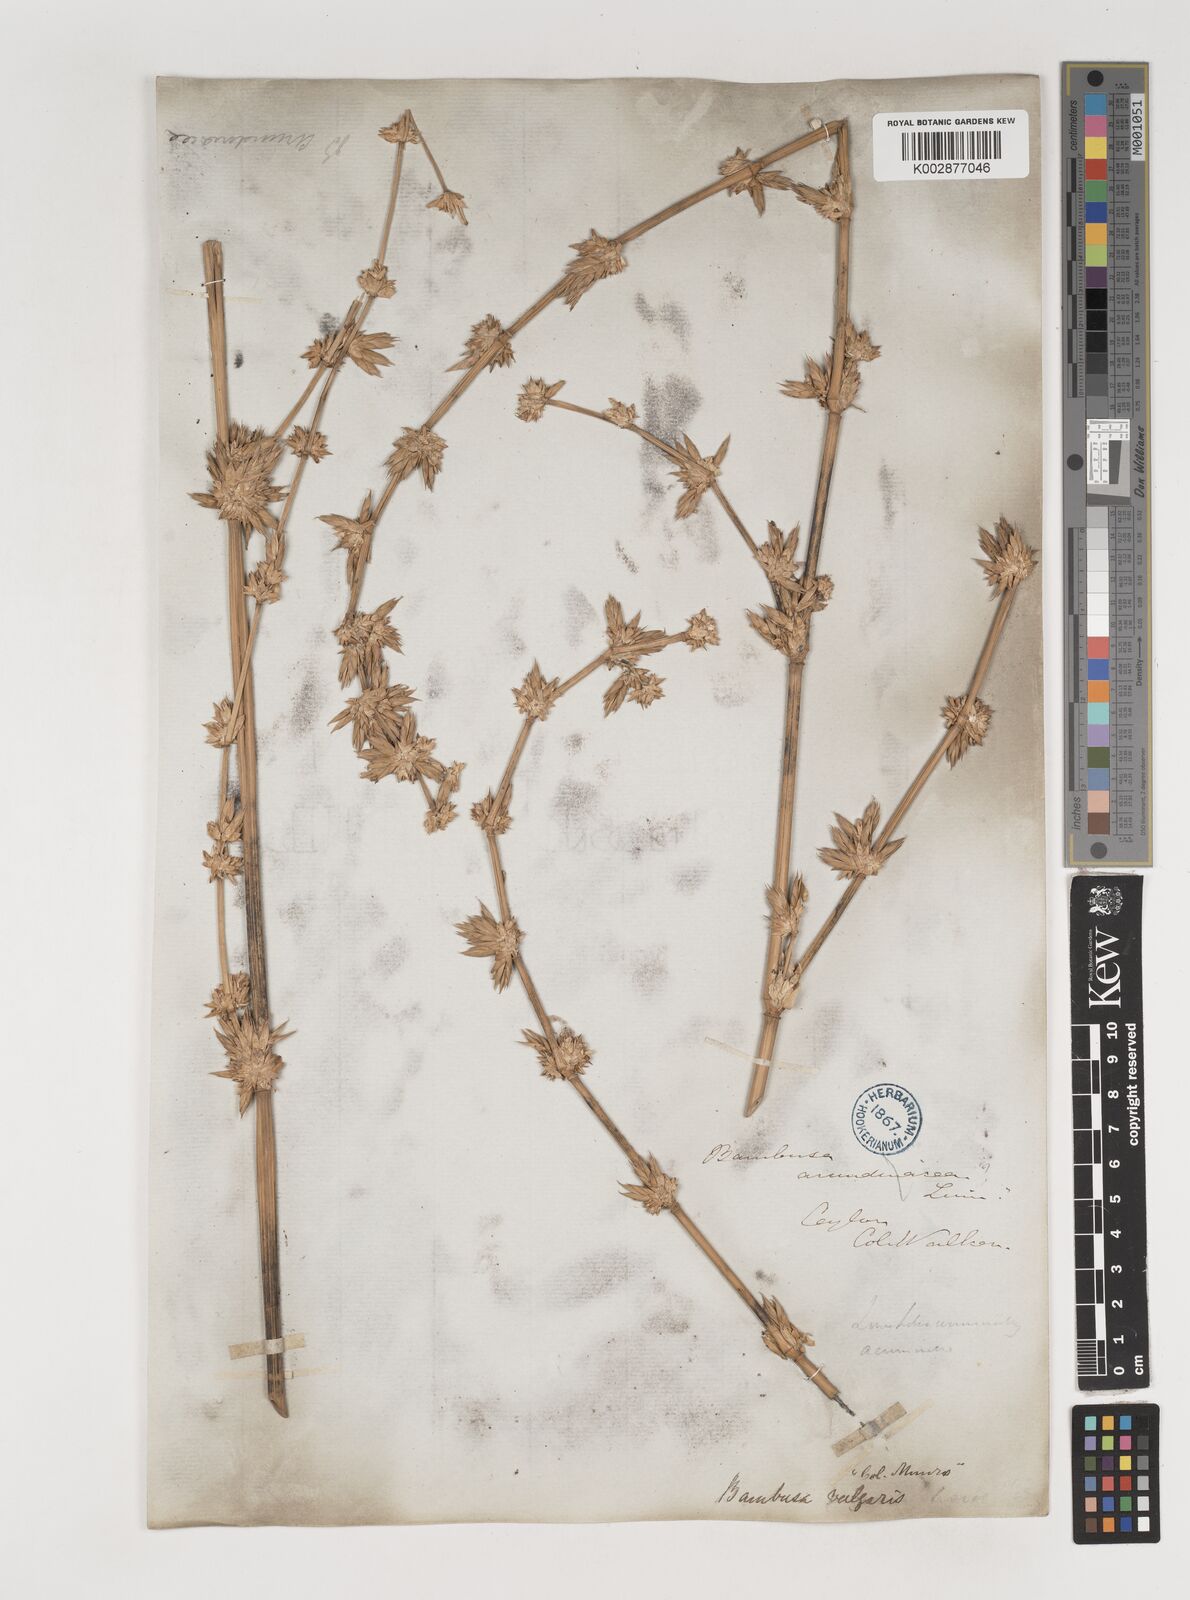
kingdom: Plantae
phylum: Tracheophyta
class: Liliopsida
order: Poales
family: Poaceae
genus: Bambusa
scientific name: Bambusa vulgaris
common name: Common bamboo
